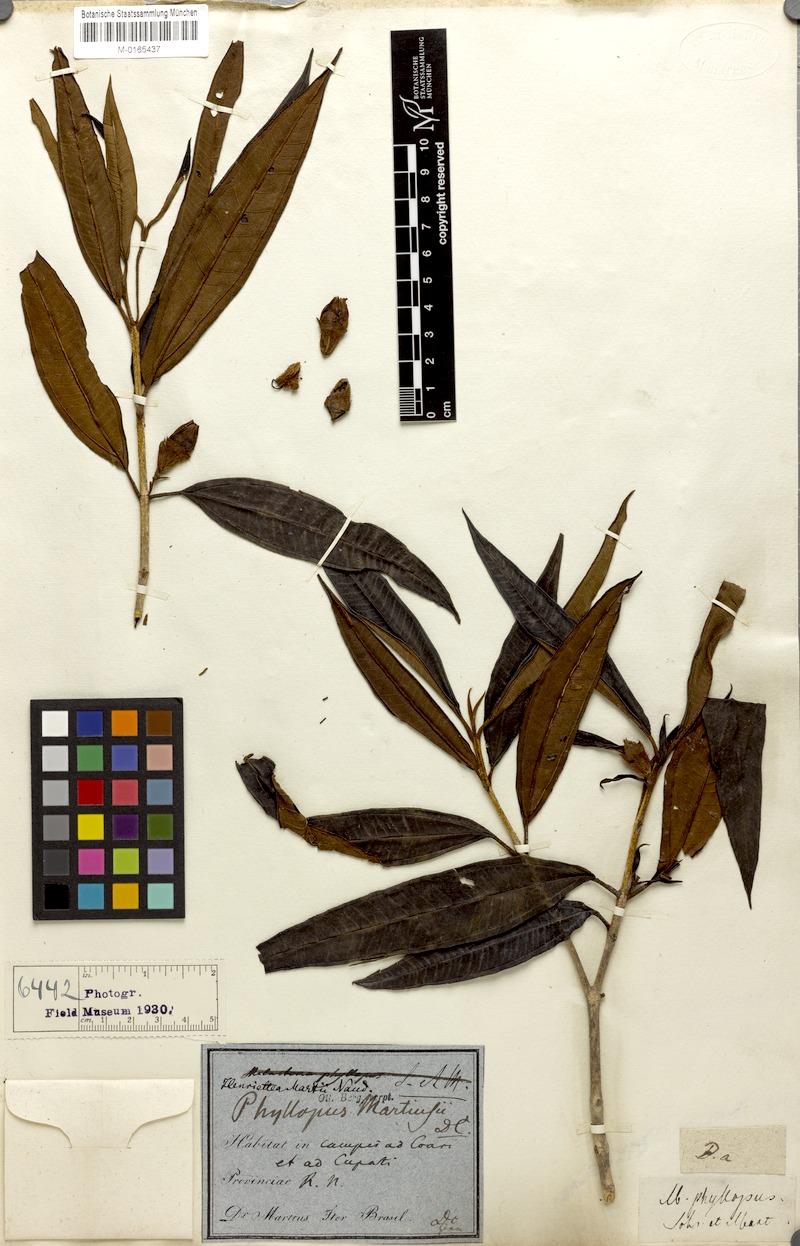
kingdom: Plantae
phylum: Tracheophyta
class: Magnoliopsida
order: Myrtales
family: Melastomataceae
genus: Henriettea
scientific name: Henriettea martiusii
